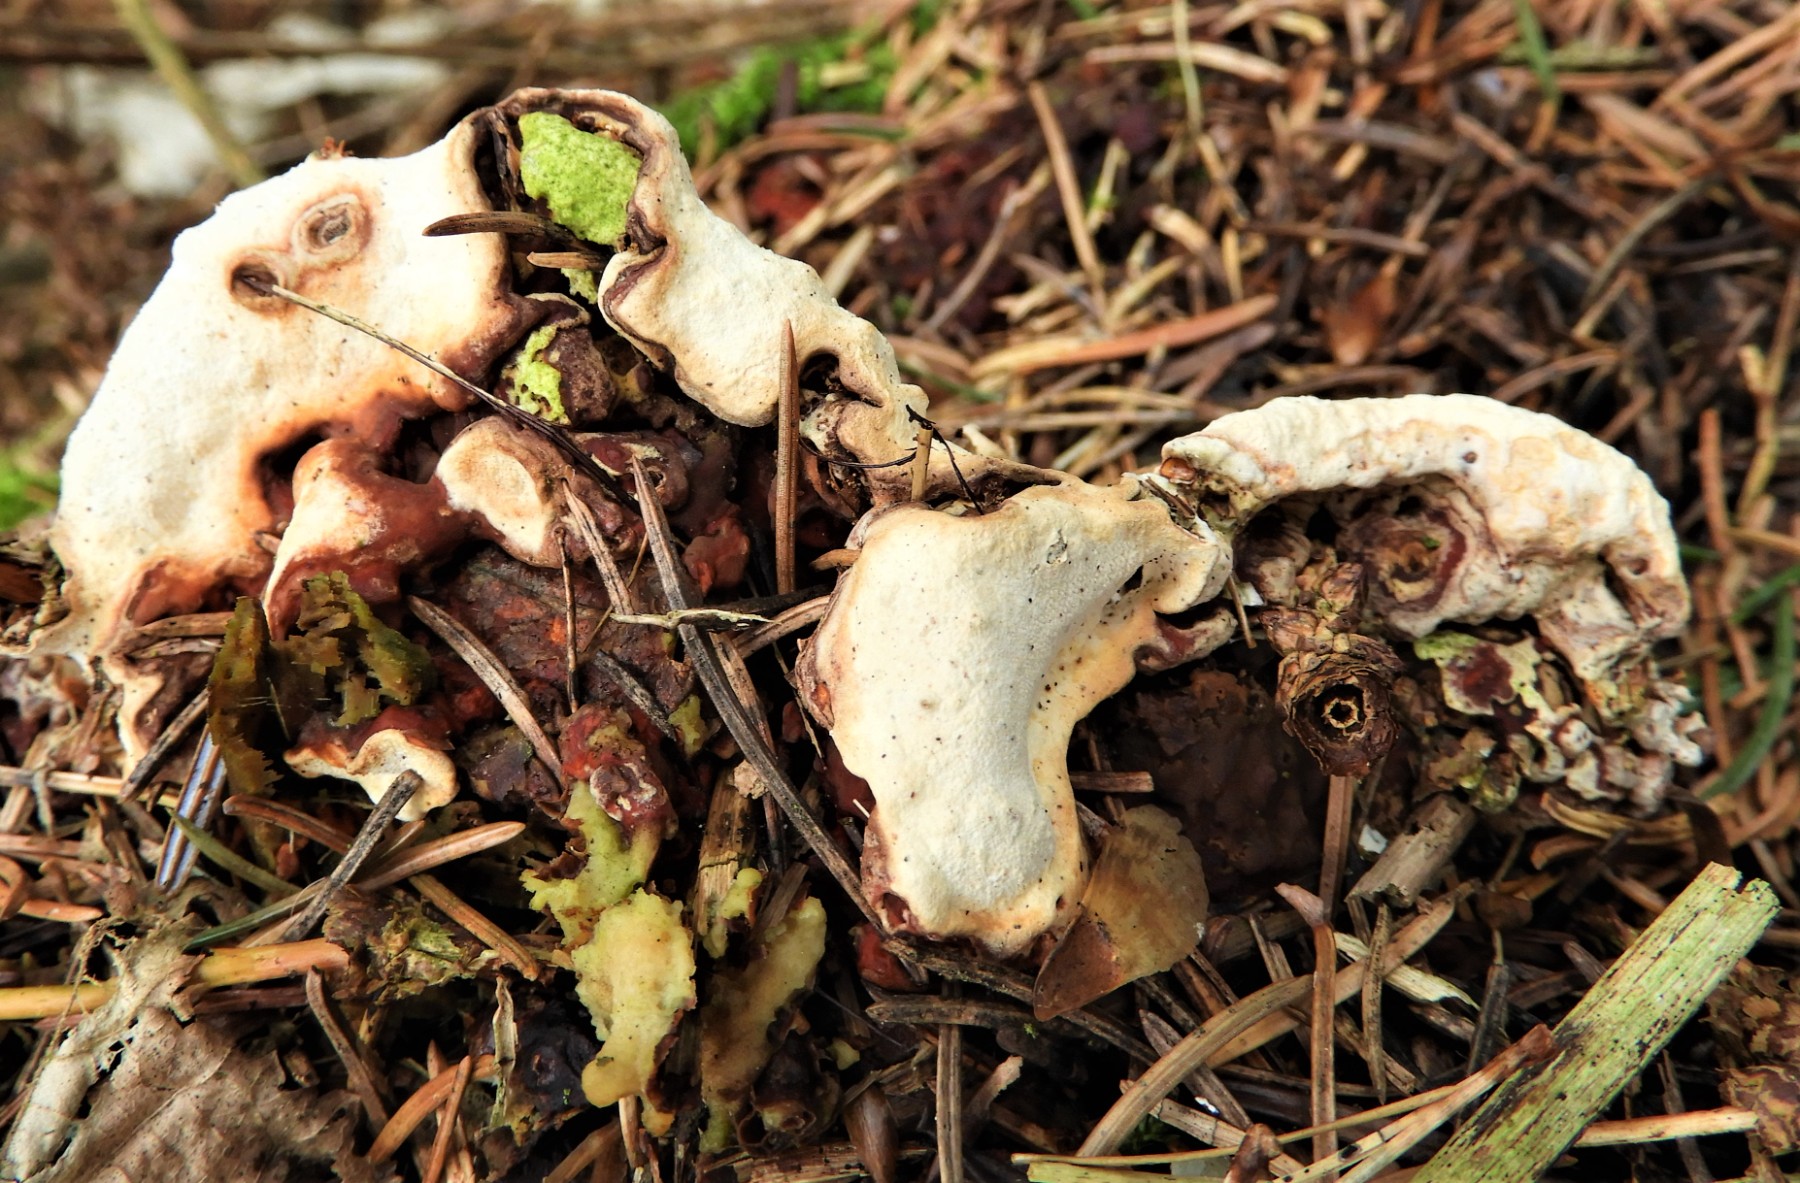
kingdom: Fungi
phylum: Basidiomycota
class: Agaricomycetes
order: Russulales
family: Bondarzewiaceae
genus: Heterobasidion
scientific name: Heterobasidion annosum
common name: almindelig rodfordærver
